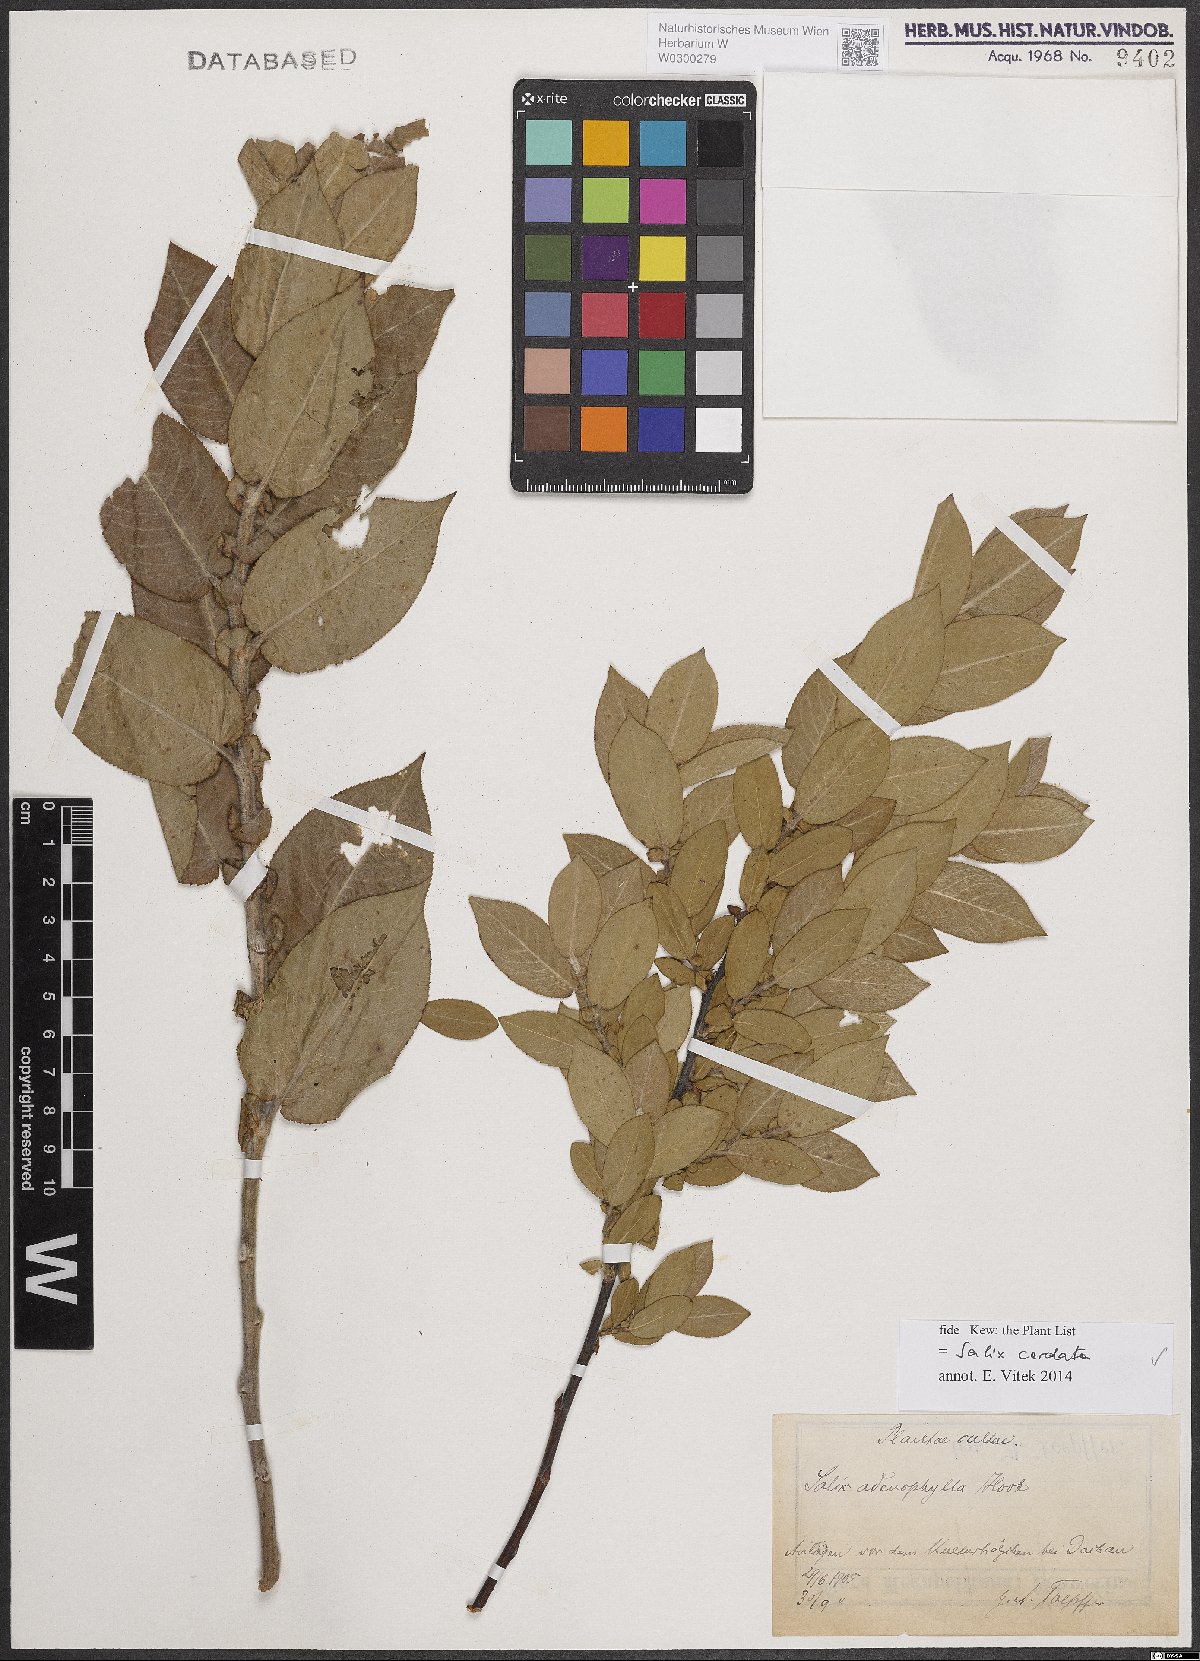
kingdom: Plantae
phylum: Tracheophyta
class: Magnoliopsida
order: Malpighiales
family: Salicaceae
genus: Salix
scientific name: Salix cordata
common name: Heart-leaf willow
